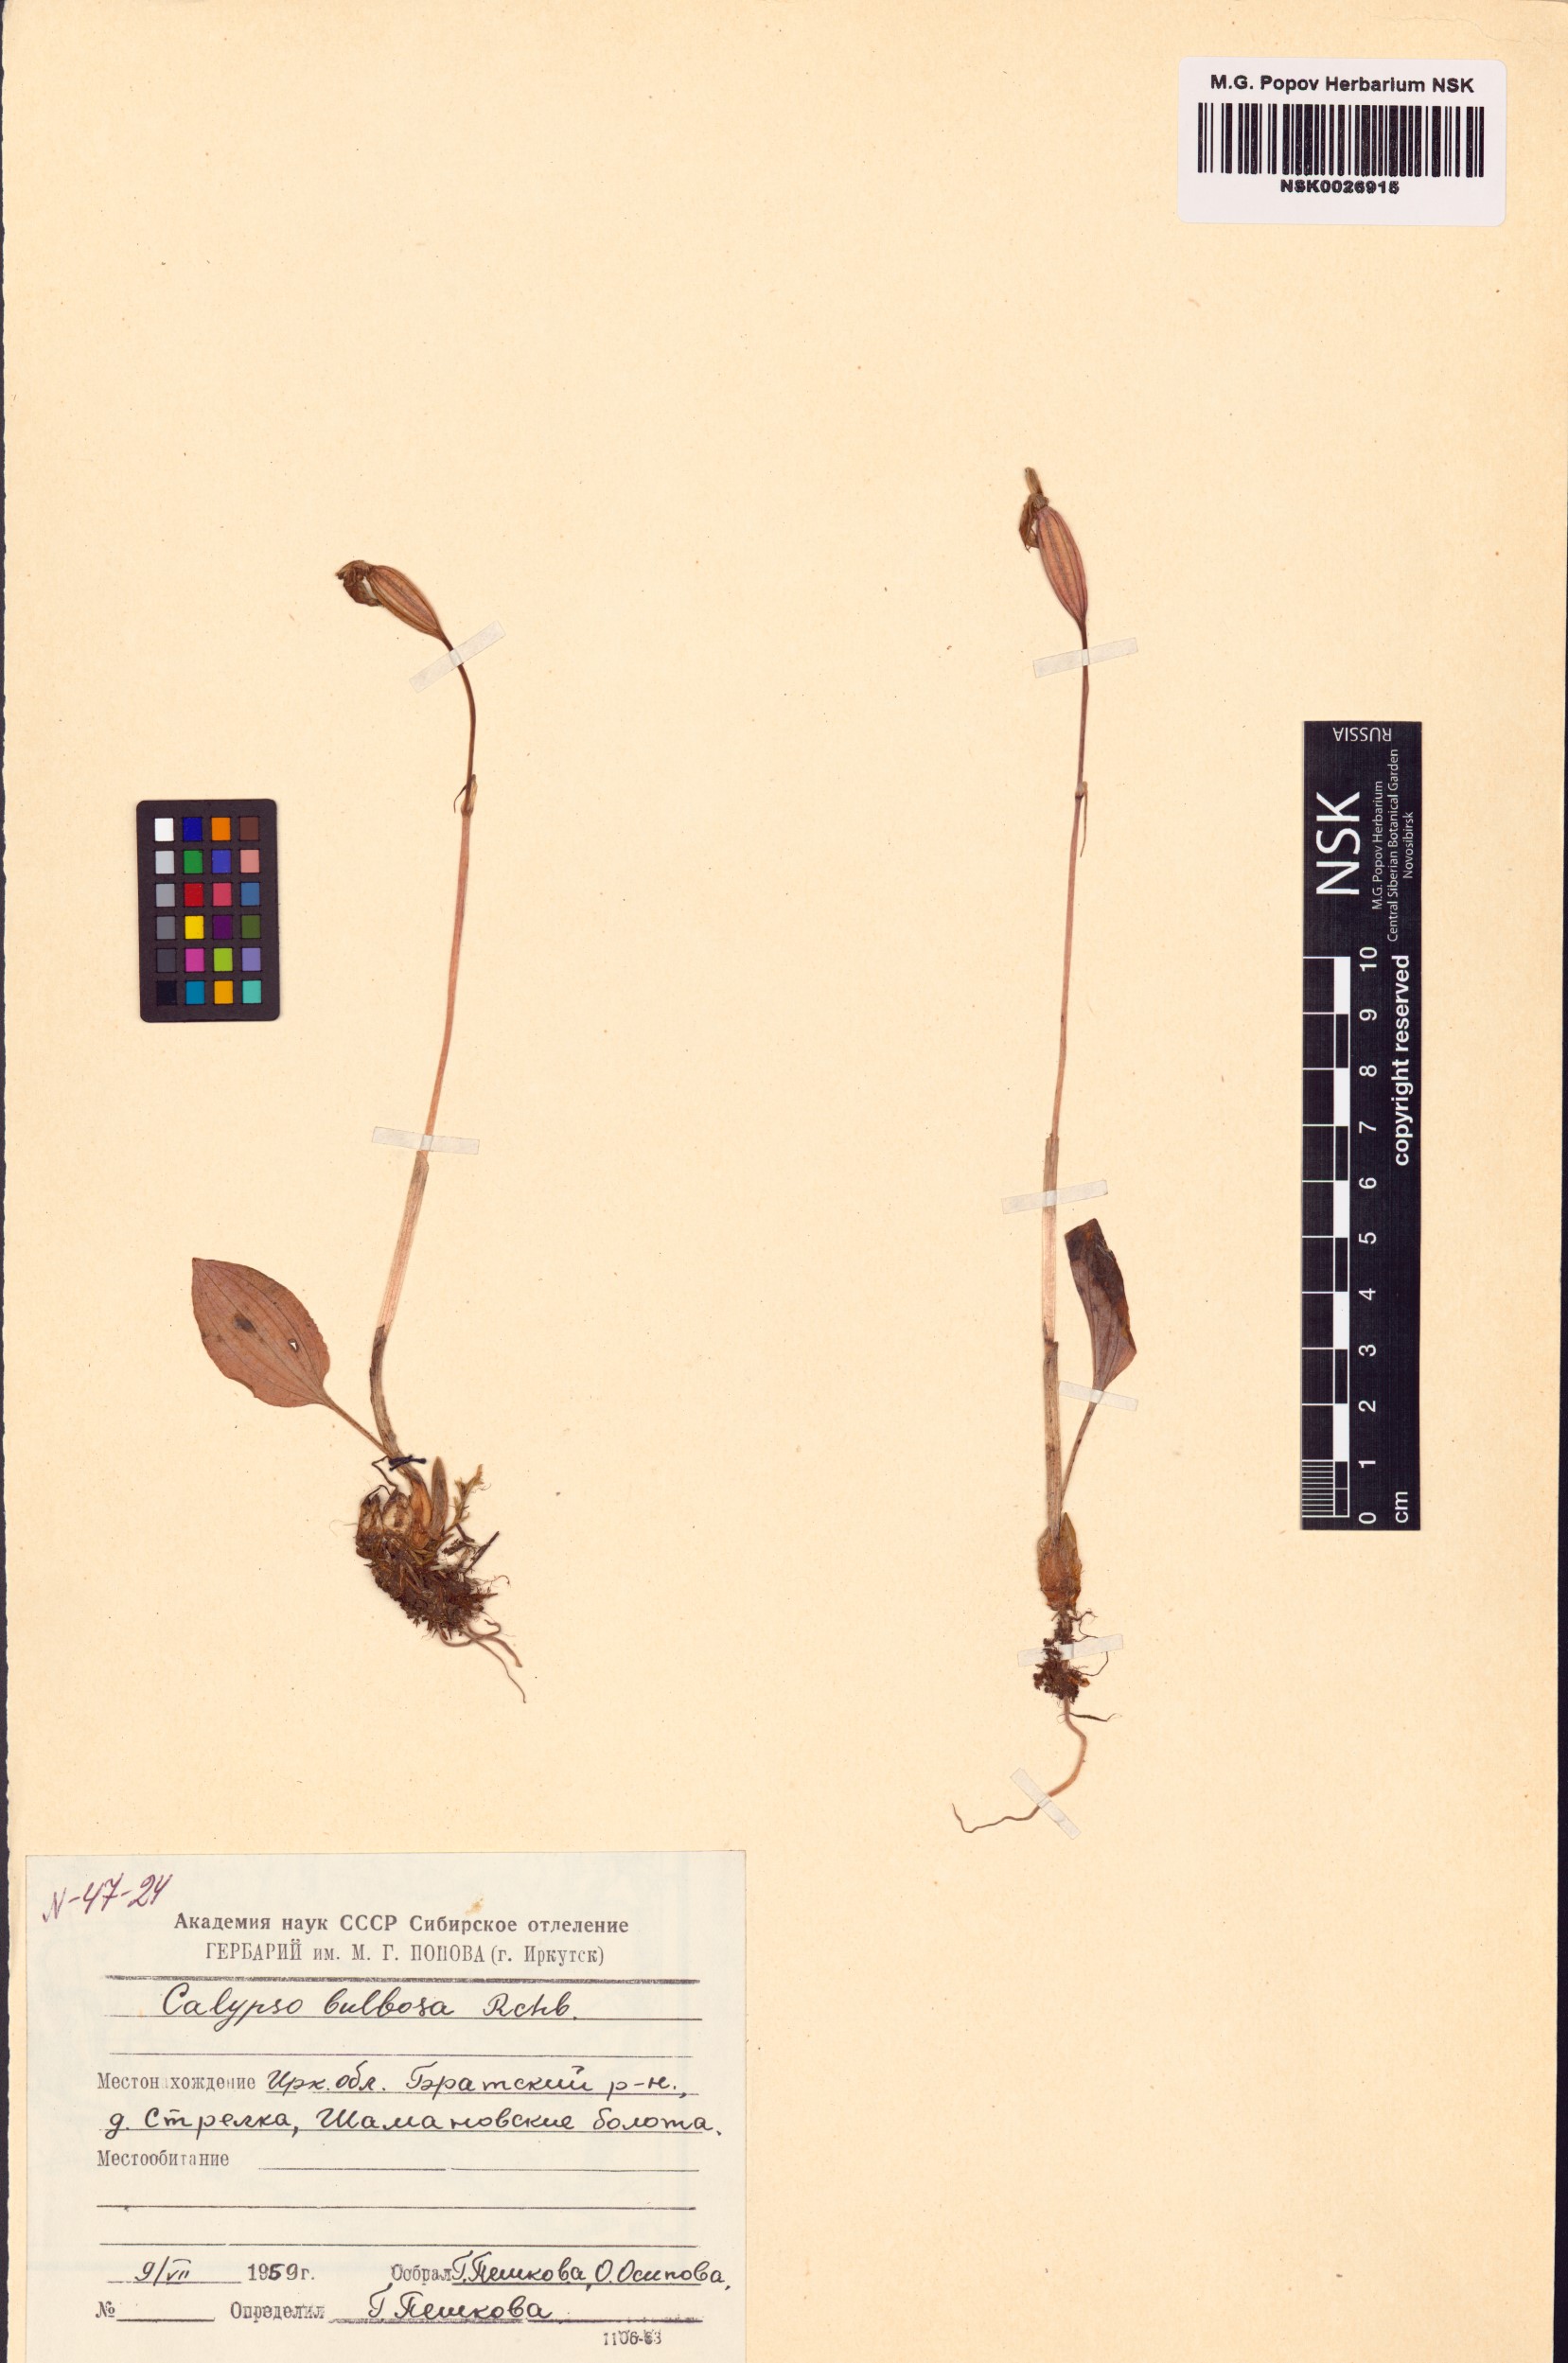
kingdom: Plantae
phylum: Tracheophyta
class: Liliopsida
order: Asparagales
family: Orchidaceae
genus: Calypso
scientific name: Calypso bulbosa
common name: Calypso
